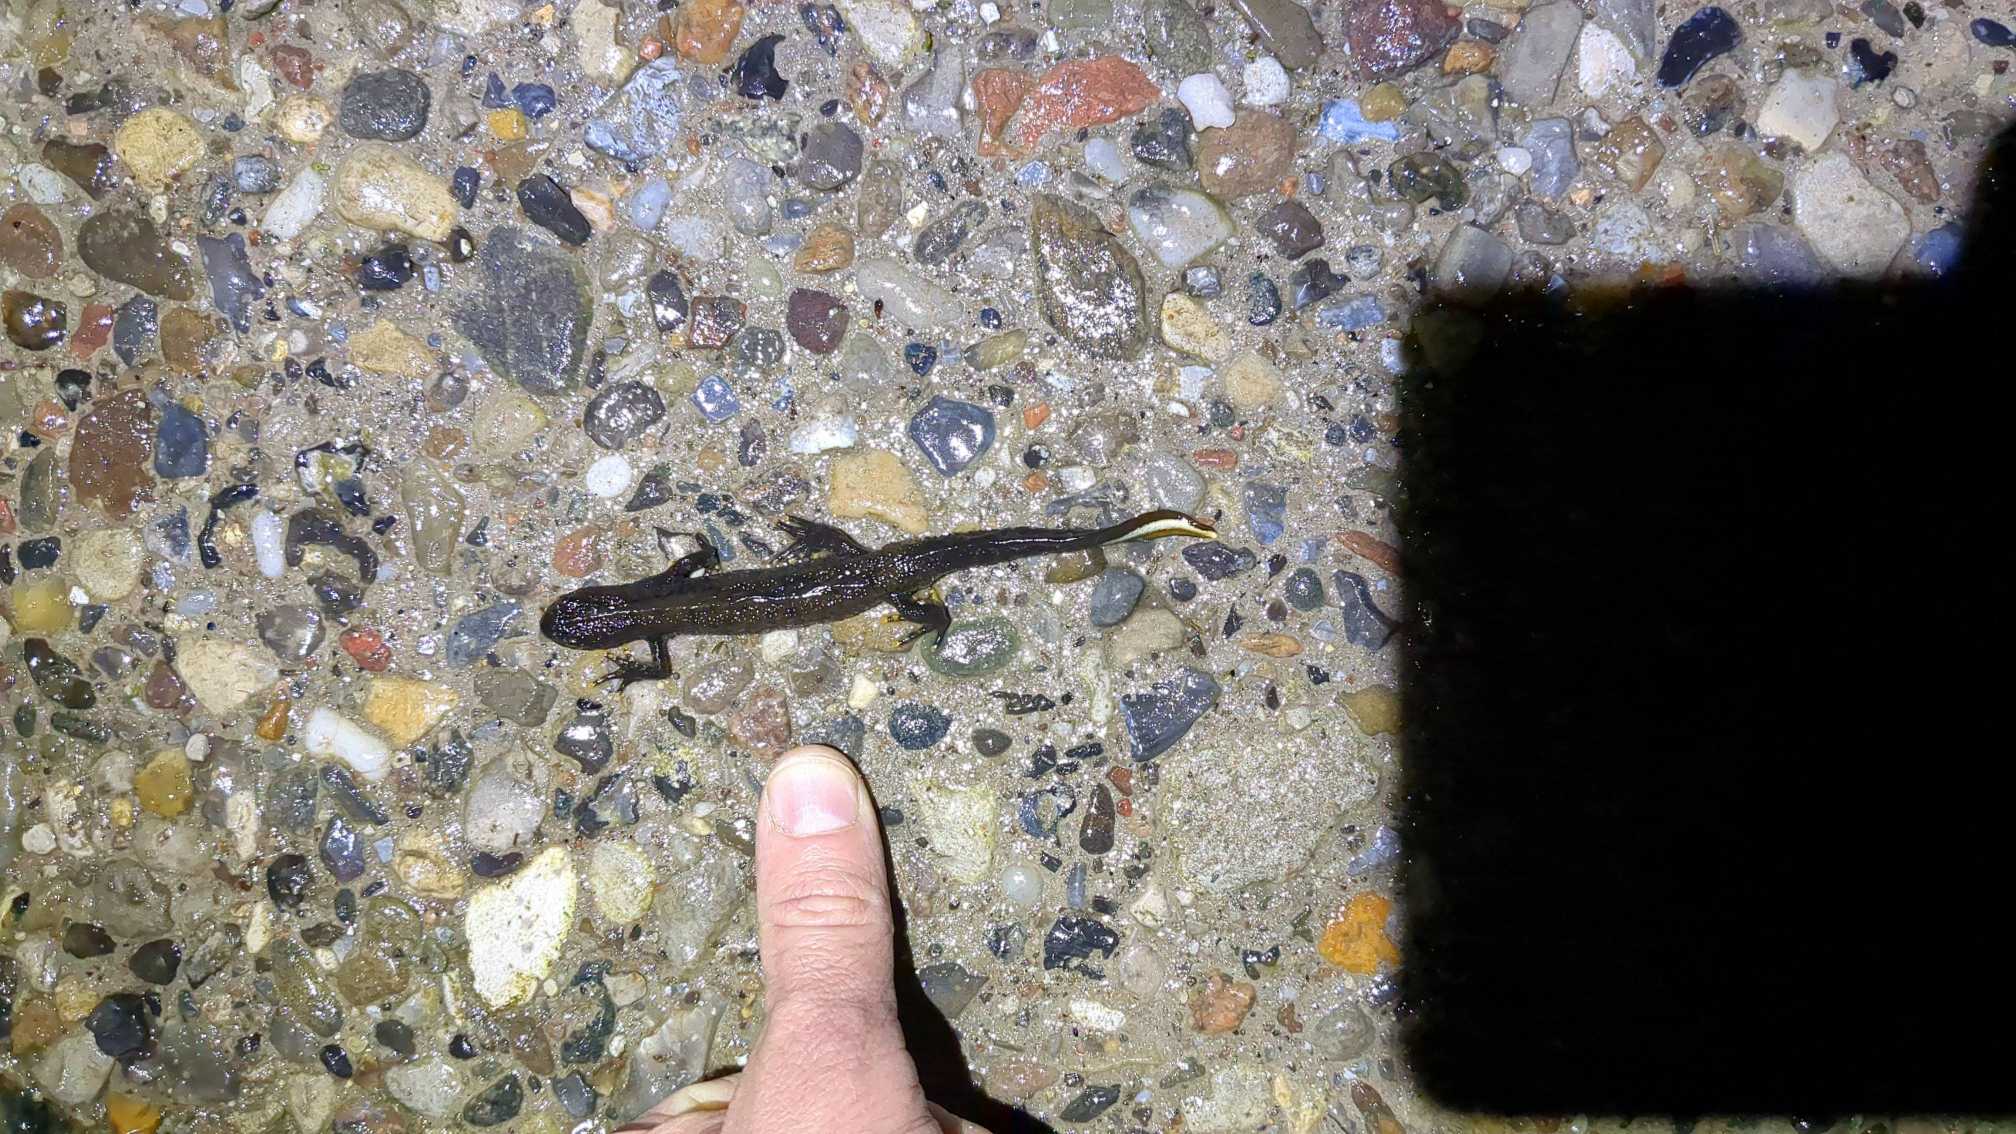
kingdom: Animalia
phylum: Chordata
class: Amphibia
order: Caudata
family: Salamandridae
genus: Triturus
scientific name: Triturus cristatus
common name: Stor vandsalamander
